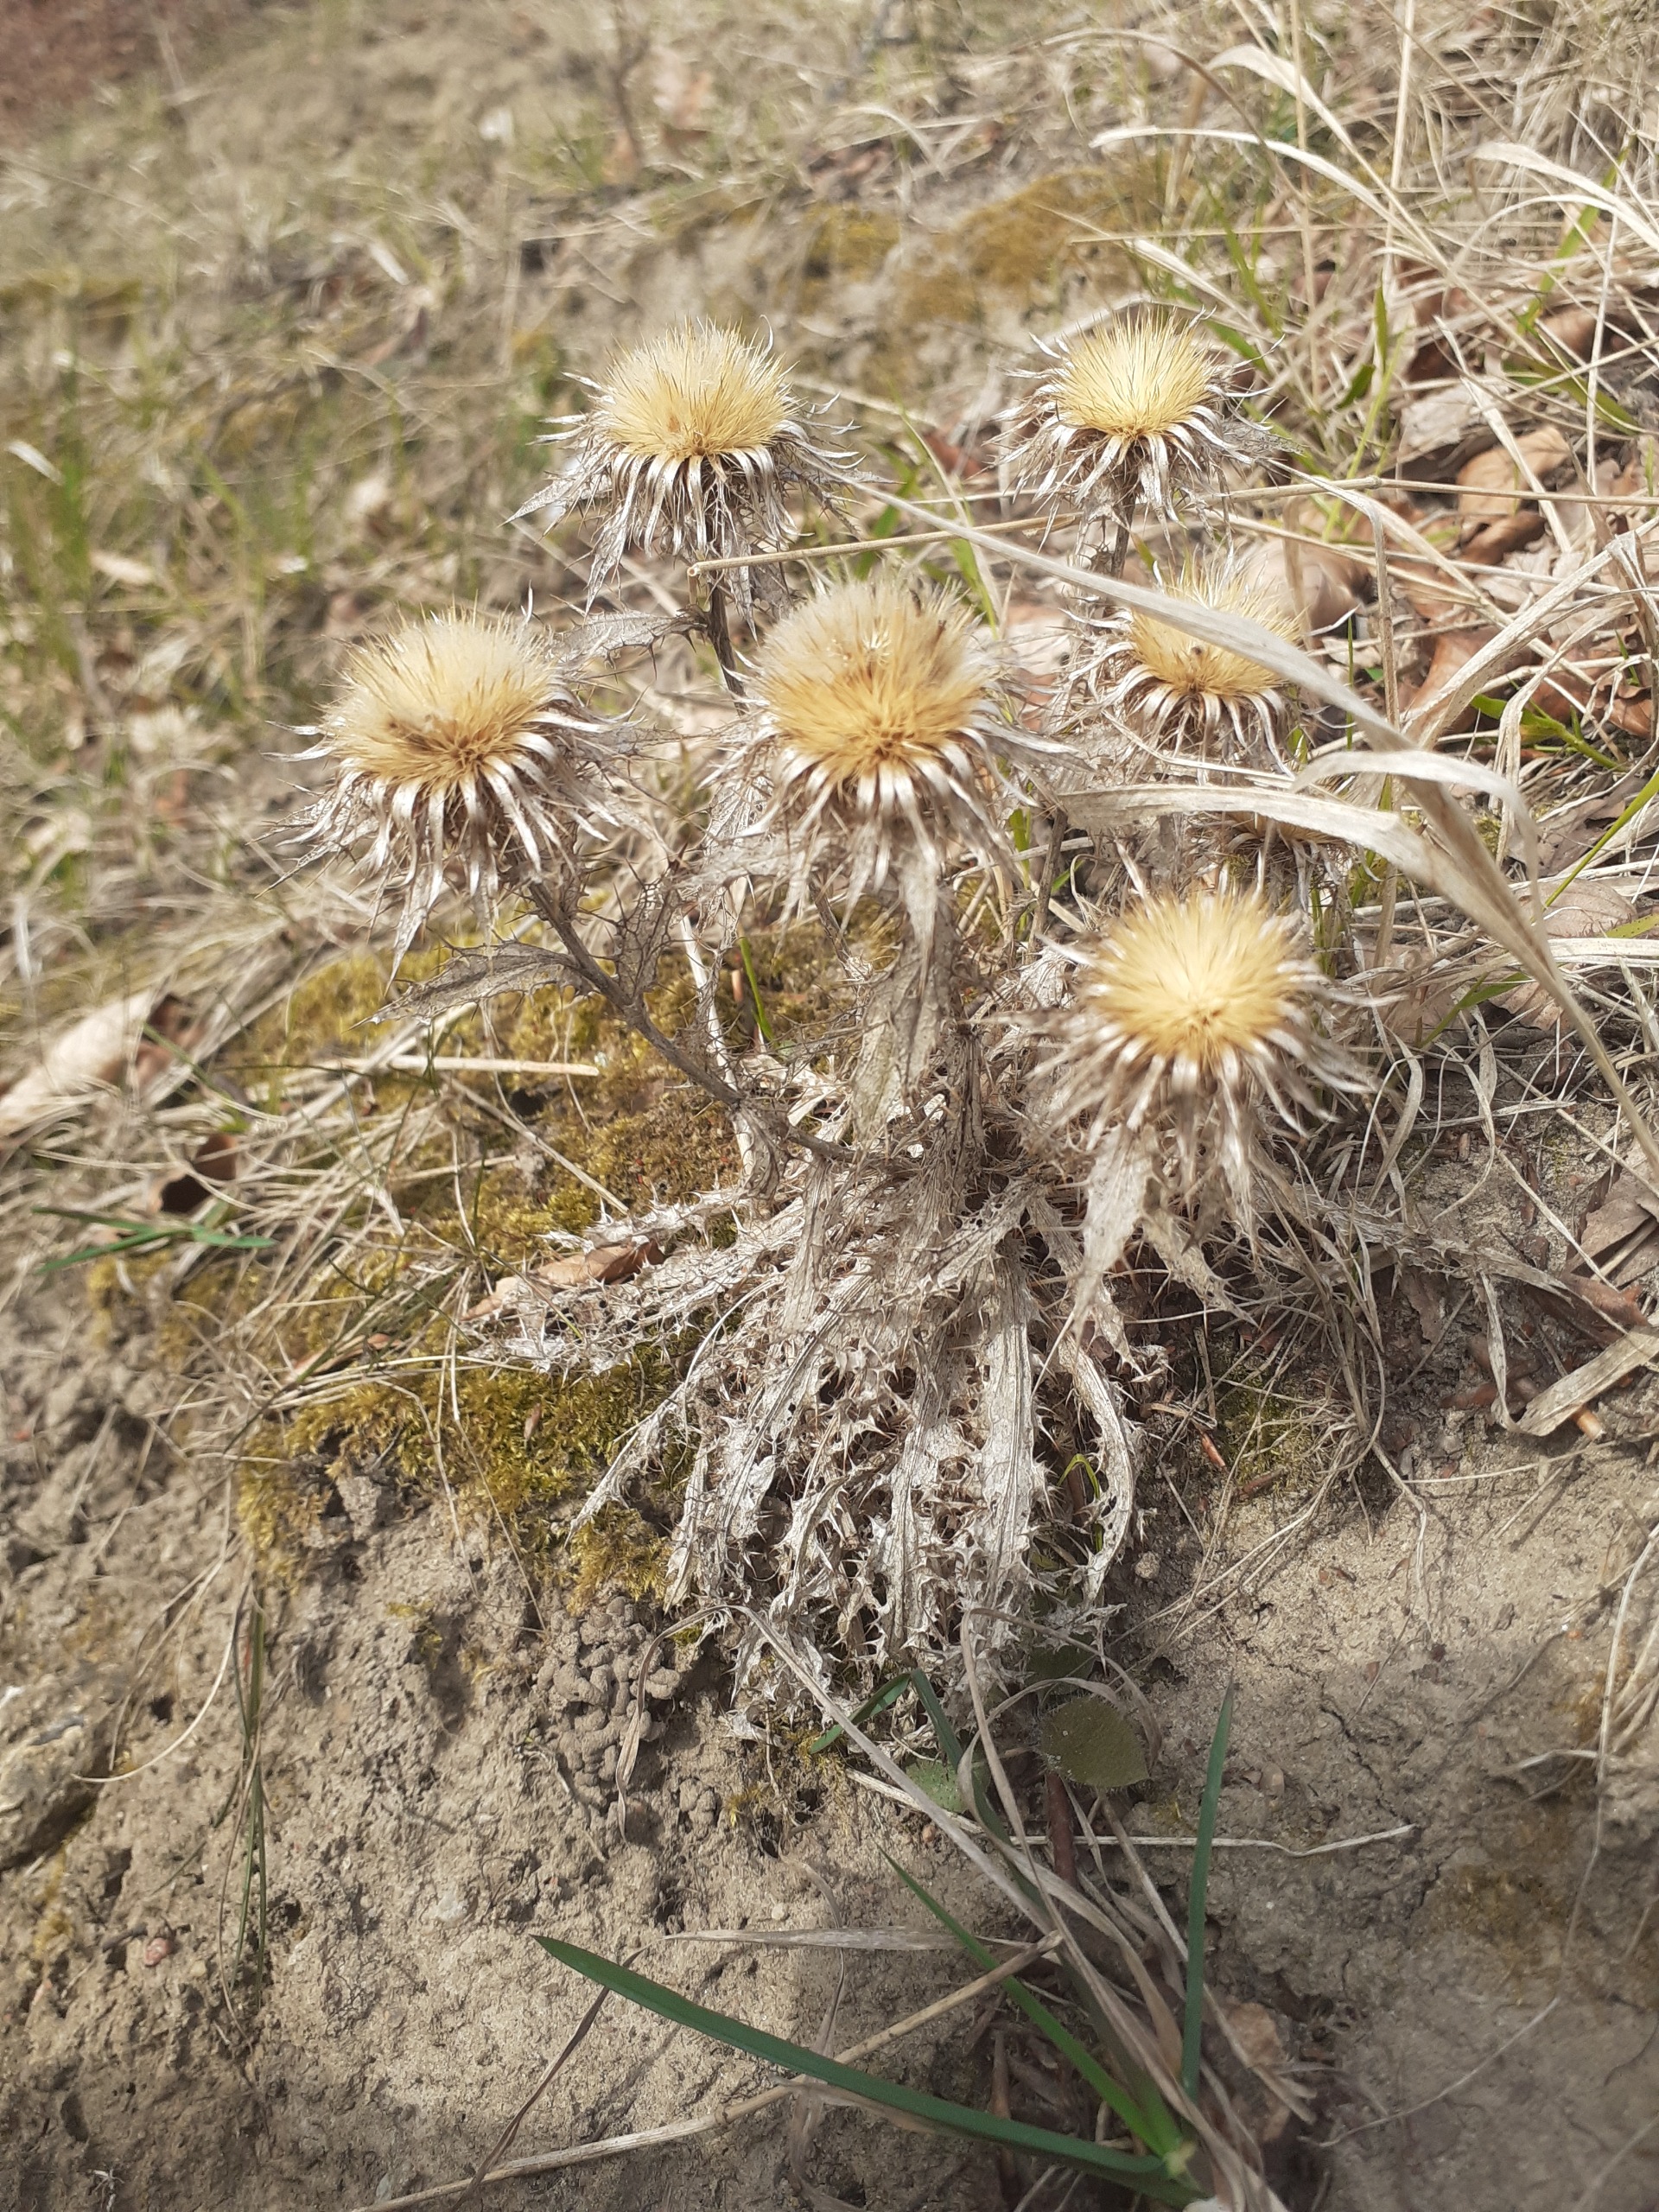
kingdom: Plantae
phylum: Tracheophyta
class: Magnoliopsida
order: Asterales
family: Asteraceae
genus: Carlina
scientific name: Carlina vulgaris
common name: Bakketidsel
